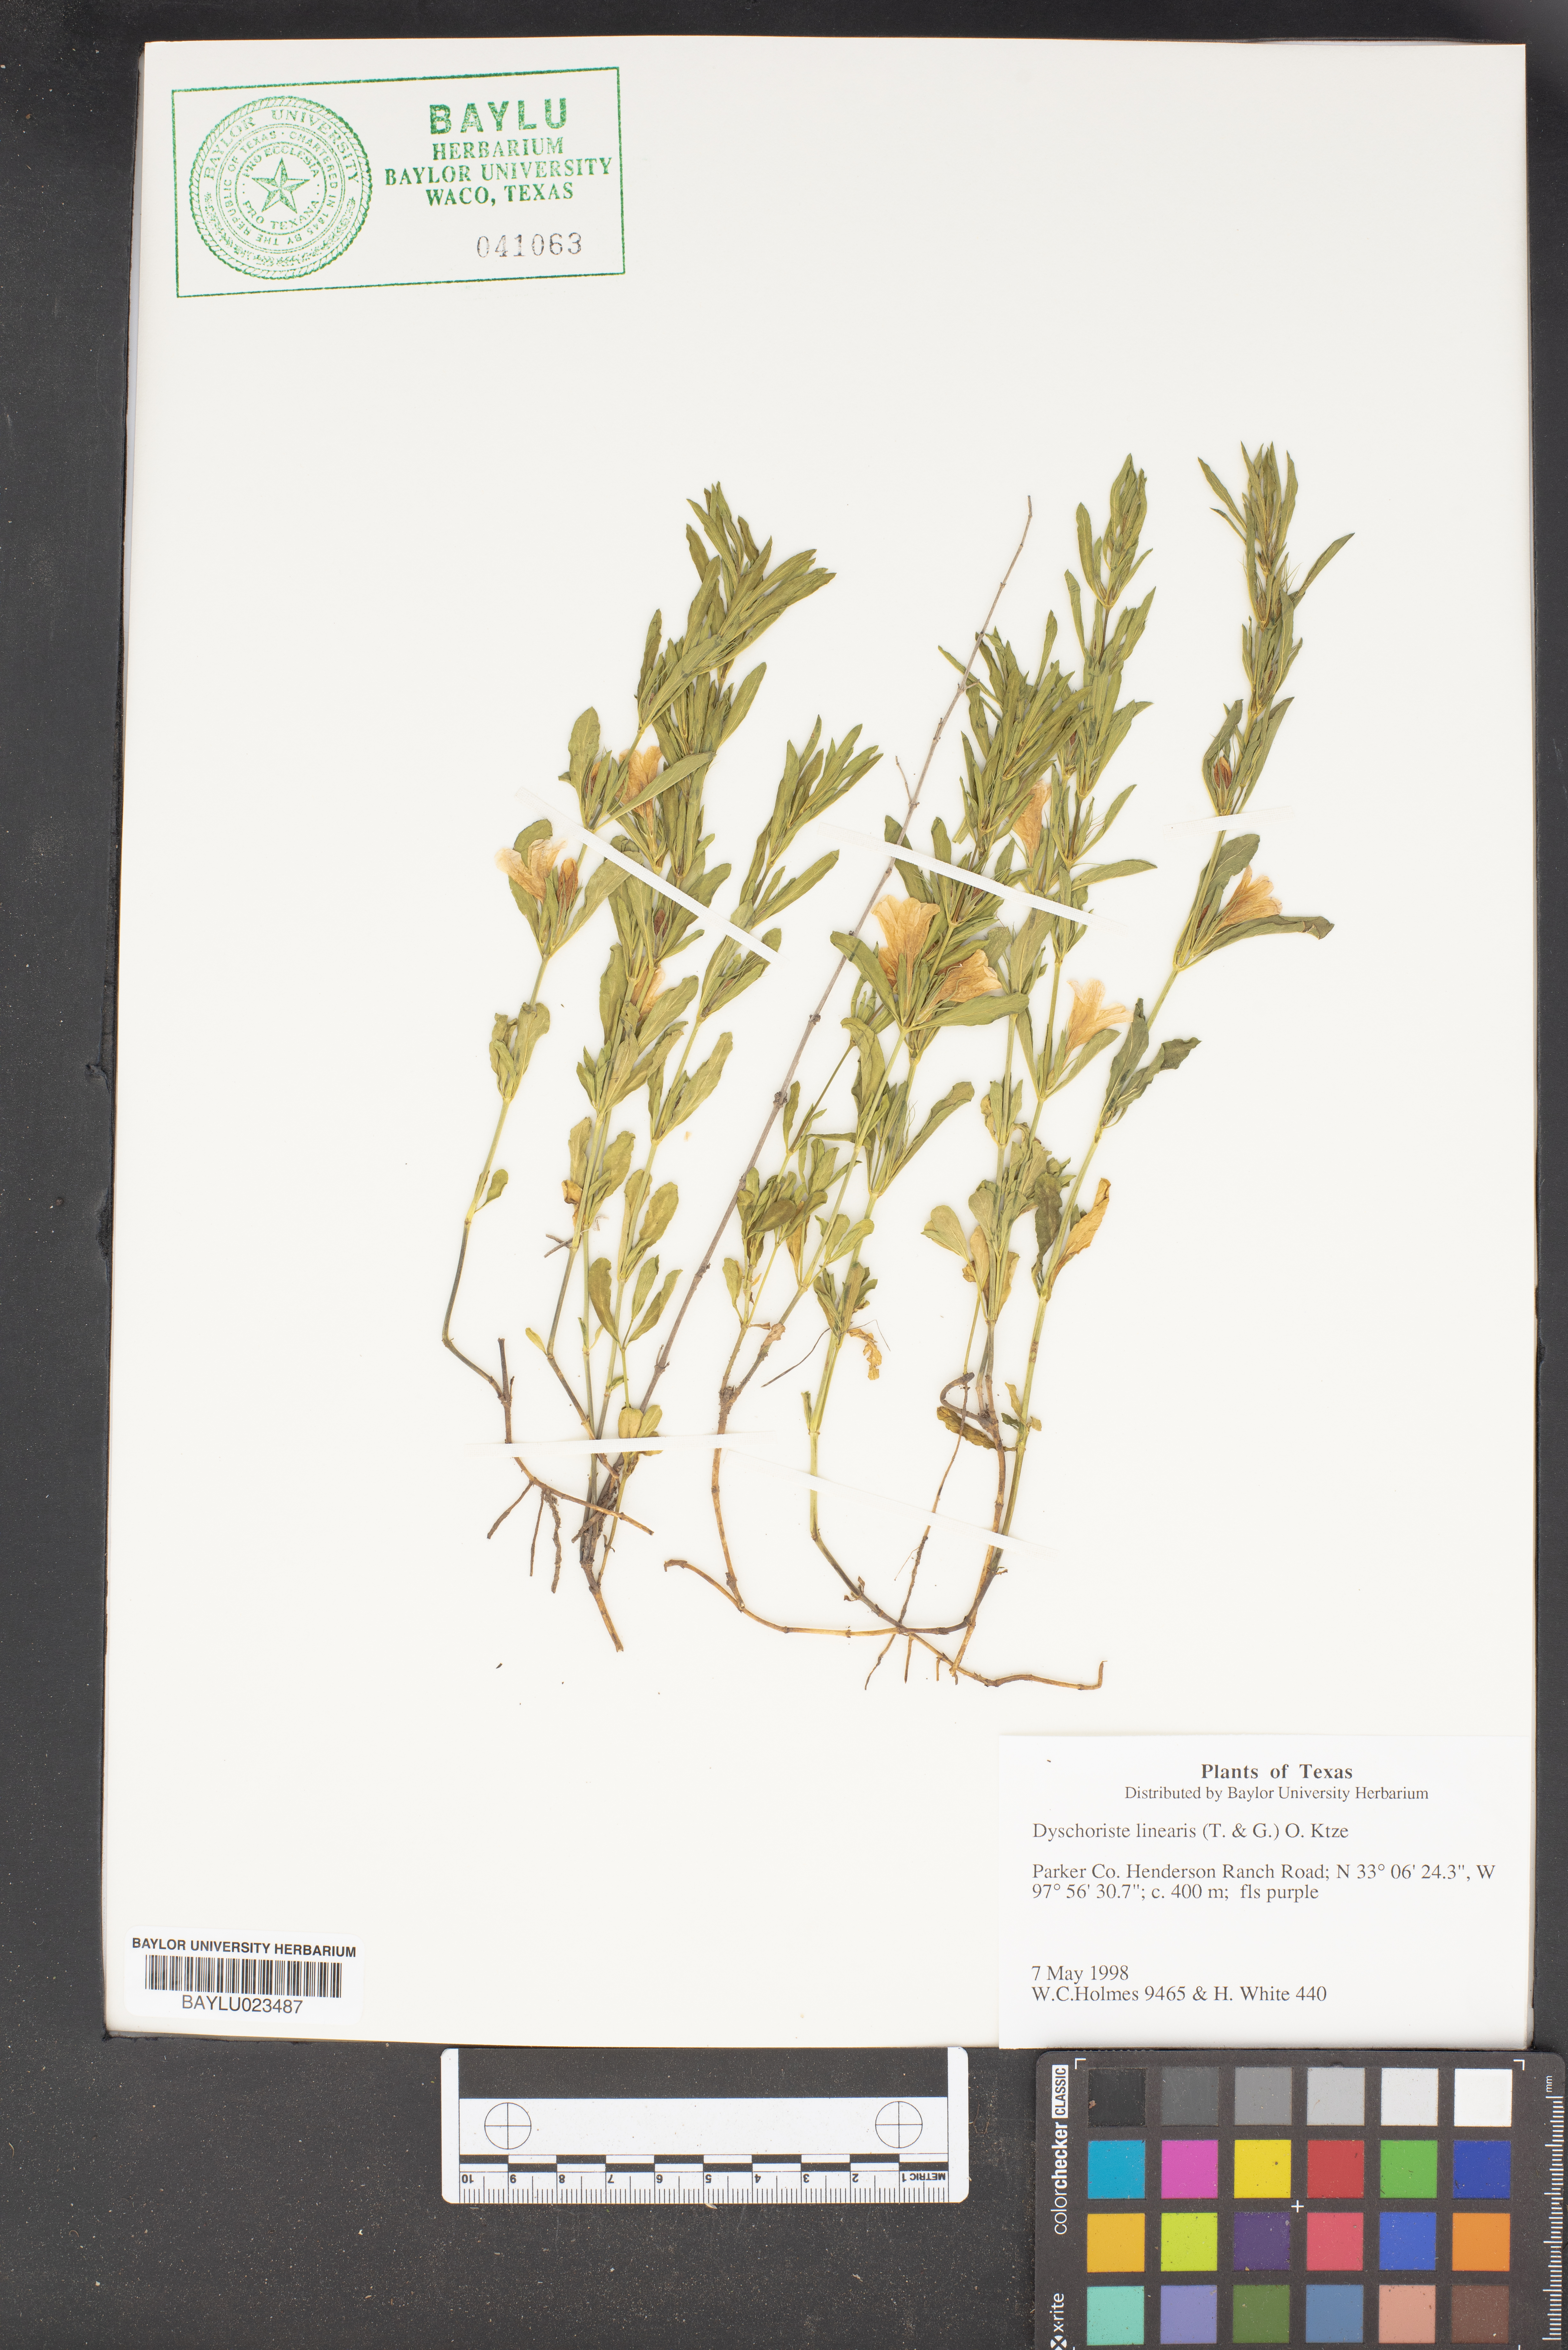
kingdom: Plantae
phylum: Tracheophyta
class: Magnoliopsida
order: Lamiales
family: Acanthaceae
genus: Dyschoriste
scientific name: Dyschoriste linearis
